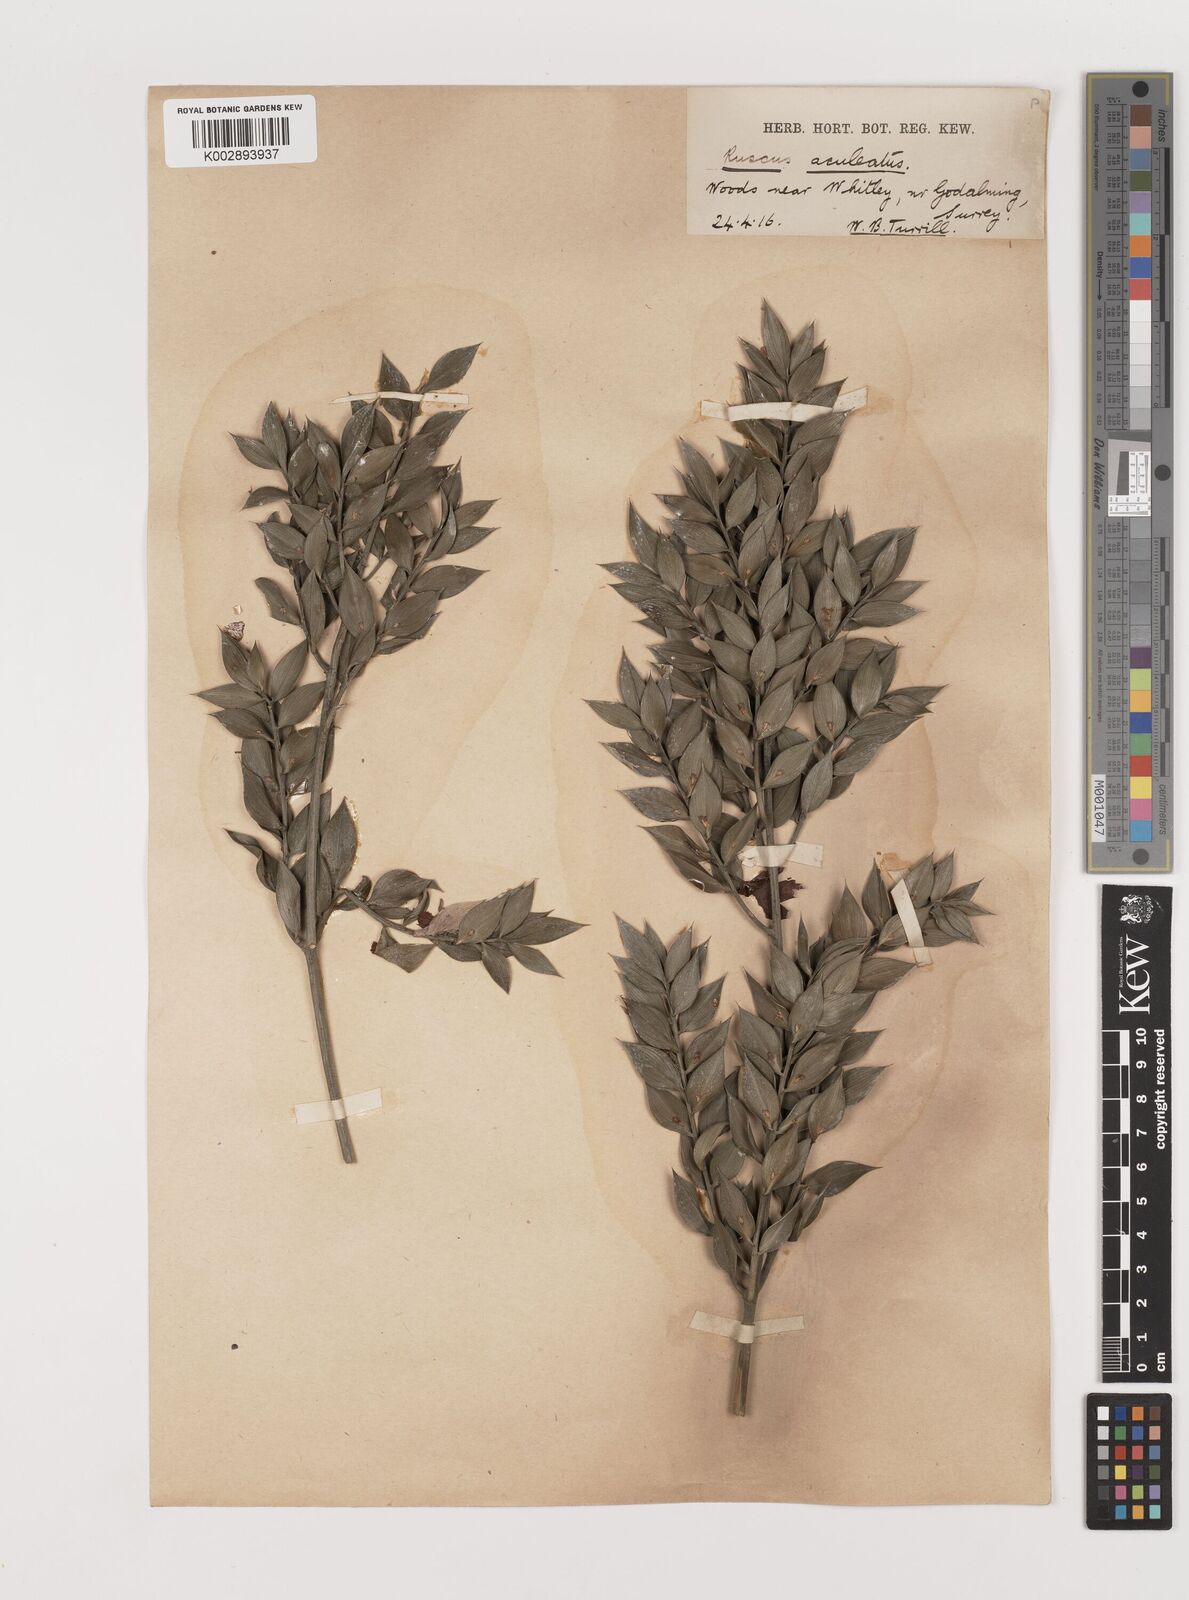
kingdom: Plantae
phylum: Tracheophyta
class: Liliopsida
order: Asparagales
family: Asparagaceae
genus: Ruscus
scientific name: Ruscus aculeatus
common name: Butcher's-broom
